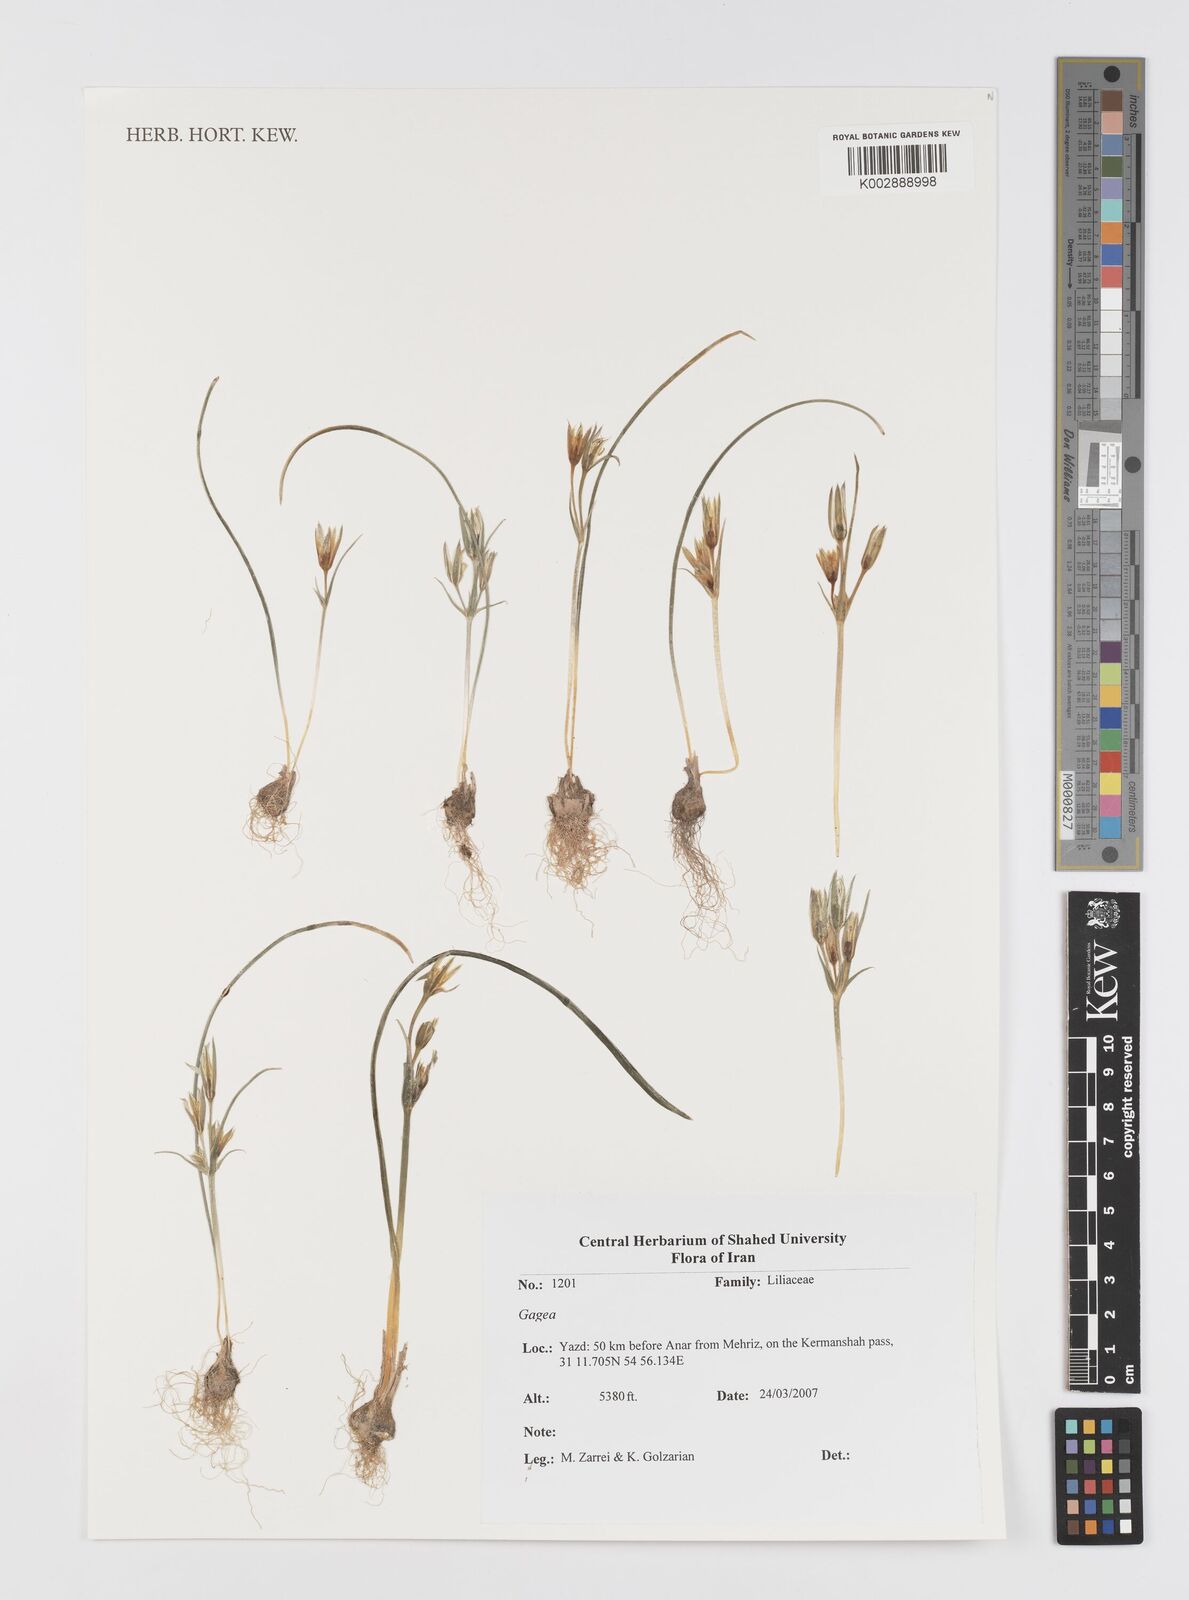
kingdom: Plantae
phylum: Tracheophyta
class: Liliopsida
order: Liliales
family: Liliaceae
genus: Gagea
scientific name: Gagea
